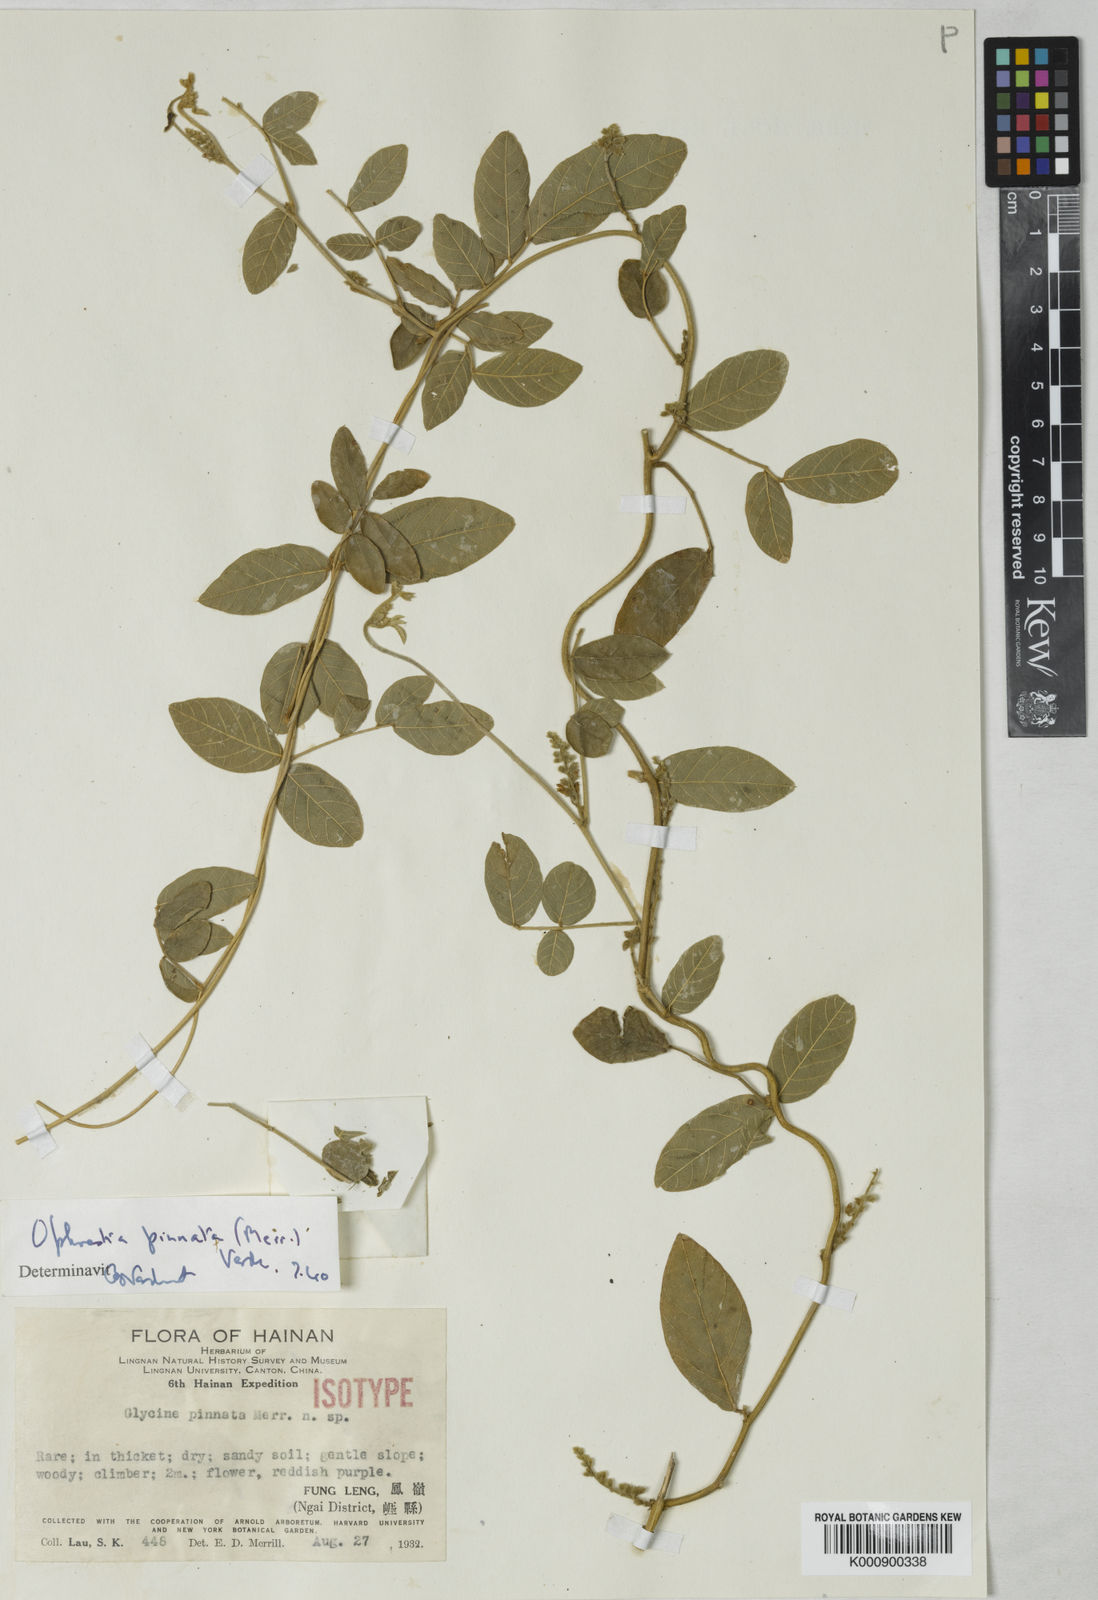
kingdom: Plantae
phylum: Tracheophyta
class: Magnoliopsida
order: Fabales
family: Fabaceae
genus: Cruddasia
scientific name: Cruddasia pinnata
